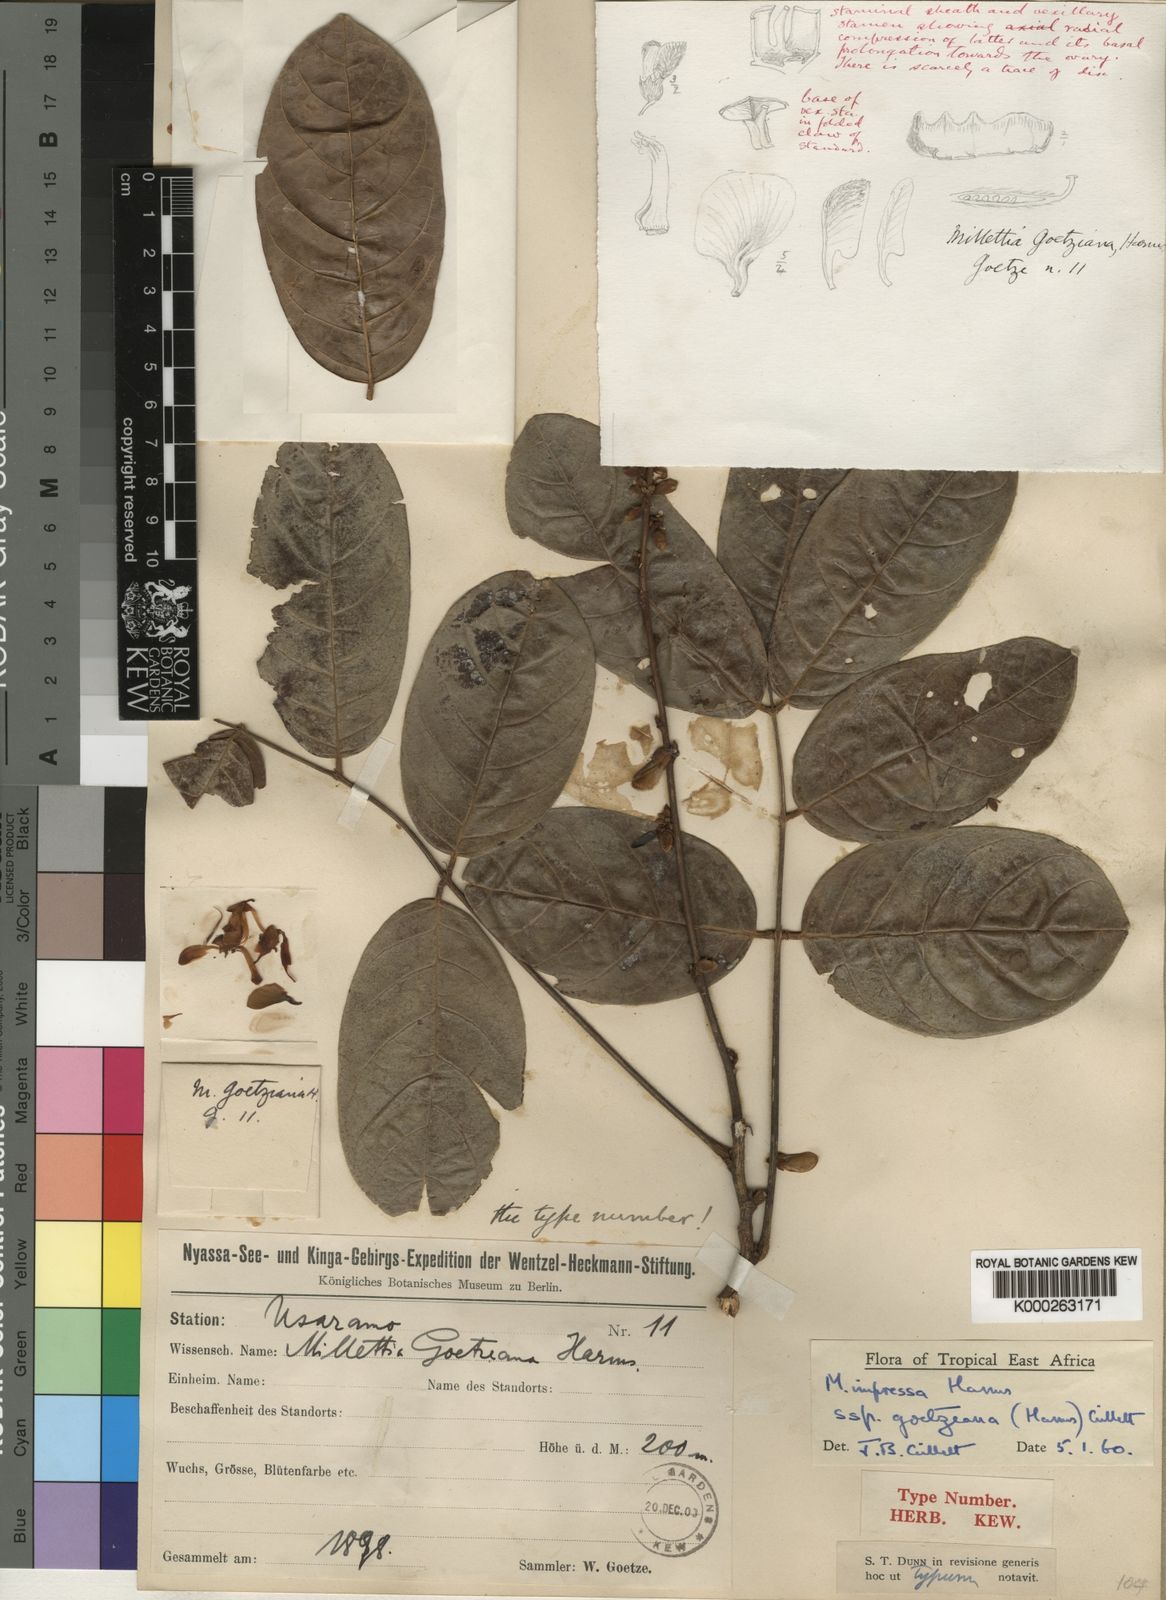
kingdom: Plantae
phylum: Tracheophyta
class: Magnoliopsida
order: Fabales
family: Fabaceae
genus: Millettia
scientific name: Millettia impressa
